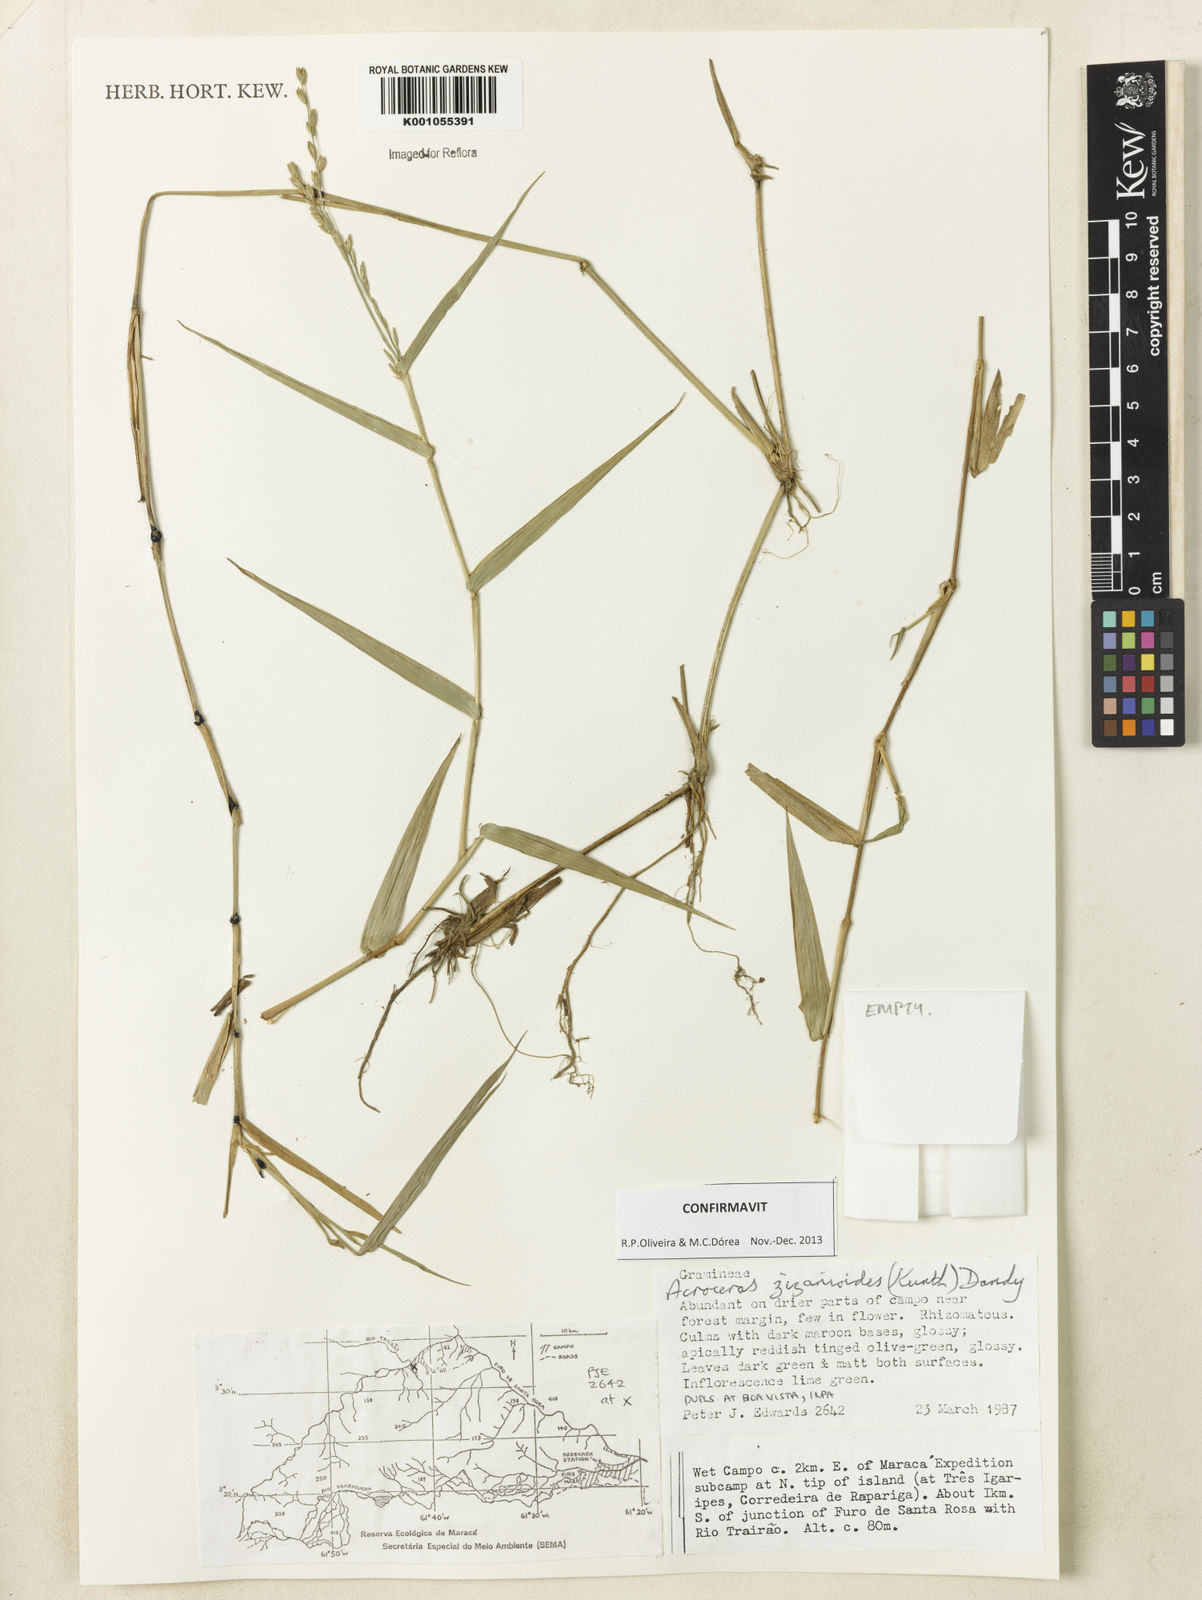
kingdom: Plantae
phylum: Tracheophyta
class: Liliopsida
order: Poales
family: Poaceae
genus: Acroceras
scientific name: Acroceras zizanioides
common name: Oat grass
